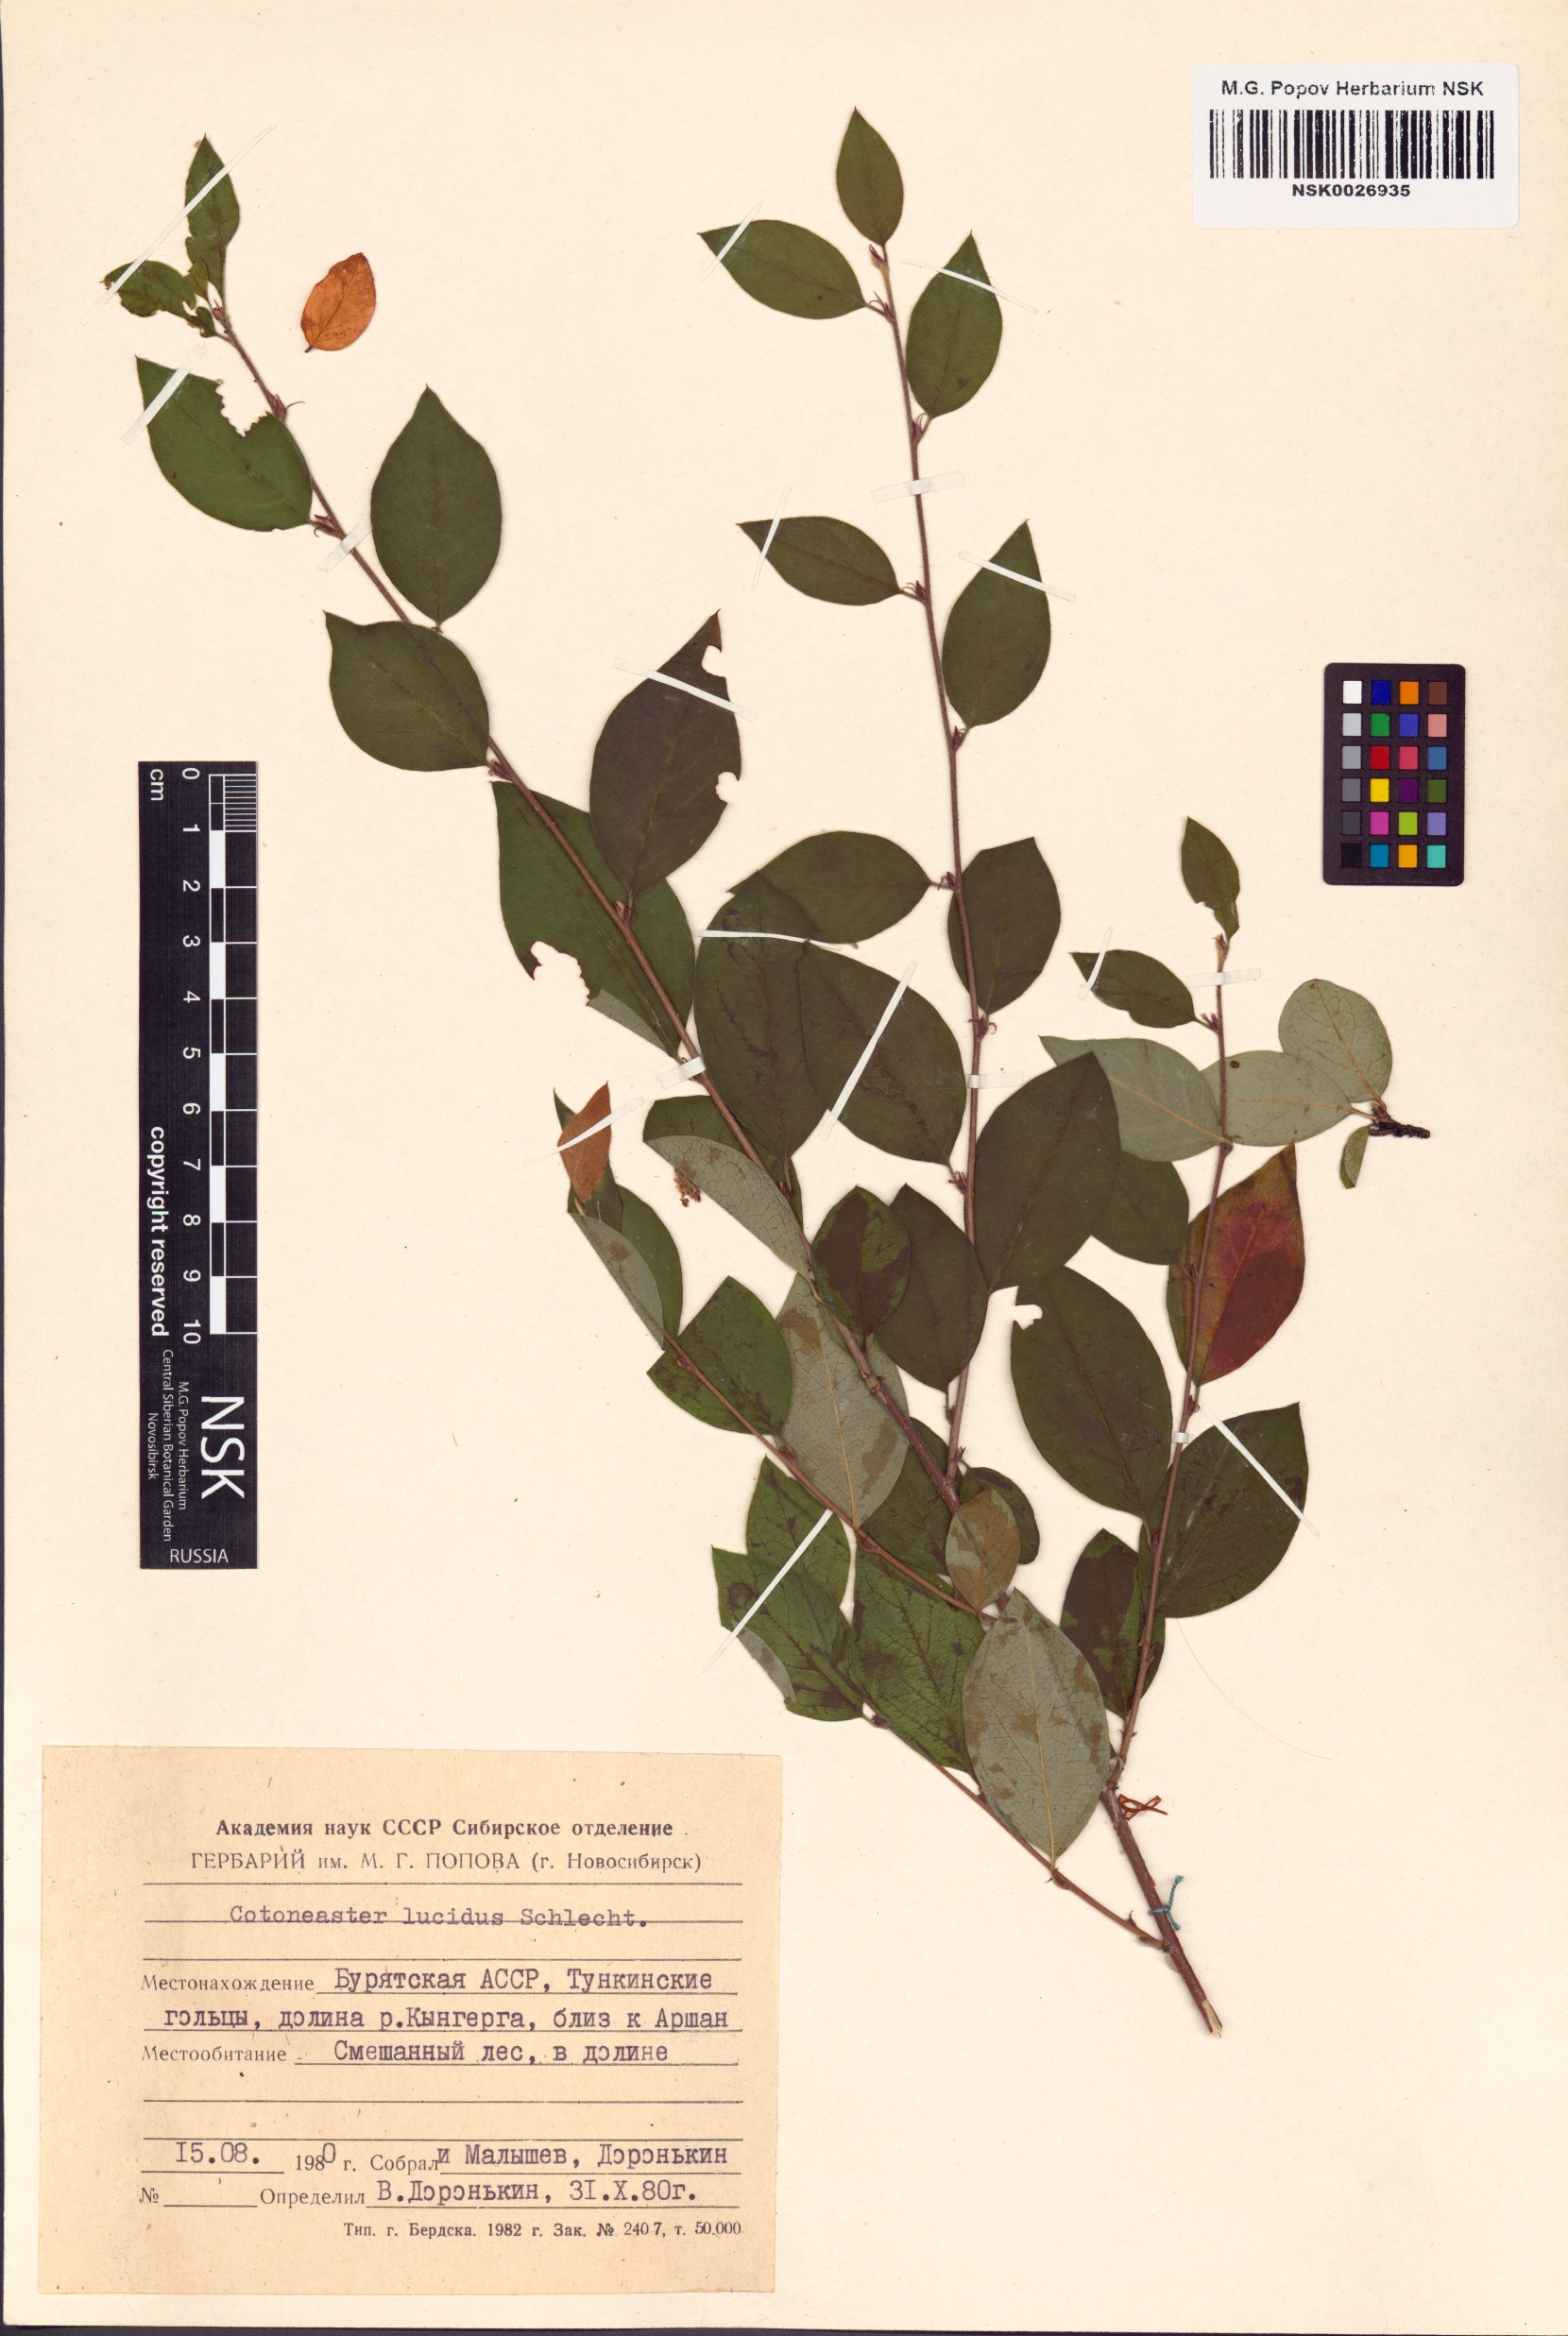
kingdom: Plantae
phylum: Tracheophyta
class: Magnoliopsida
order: Rosales
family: Rosaceae
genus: Cotoneaster
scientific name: Cotoneaster acutifolius
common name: Peking cotoneaster
